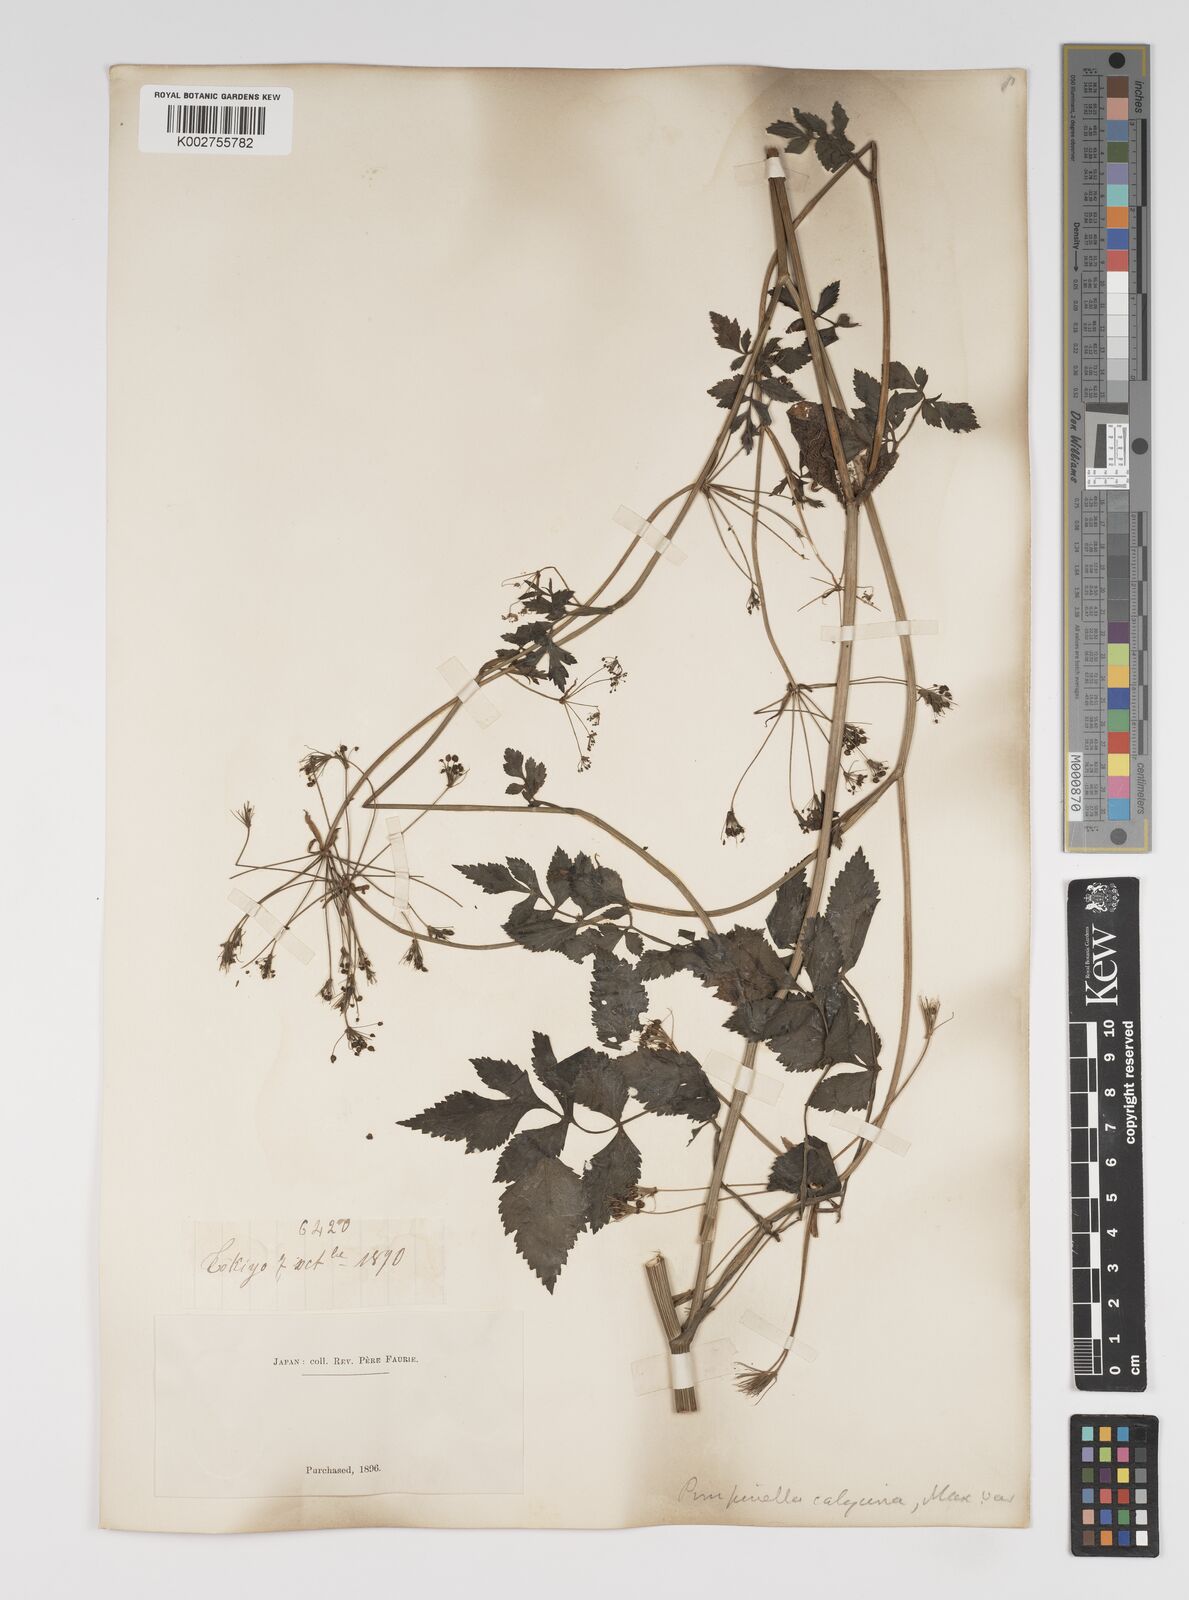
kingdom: Plantae
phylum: Tracheophyta
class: Magnoliopsida
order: Apiales
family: Apiaceae
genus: Spuriopimpinella
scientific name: Spuriopimpinella calycina
